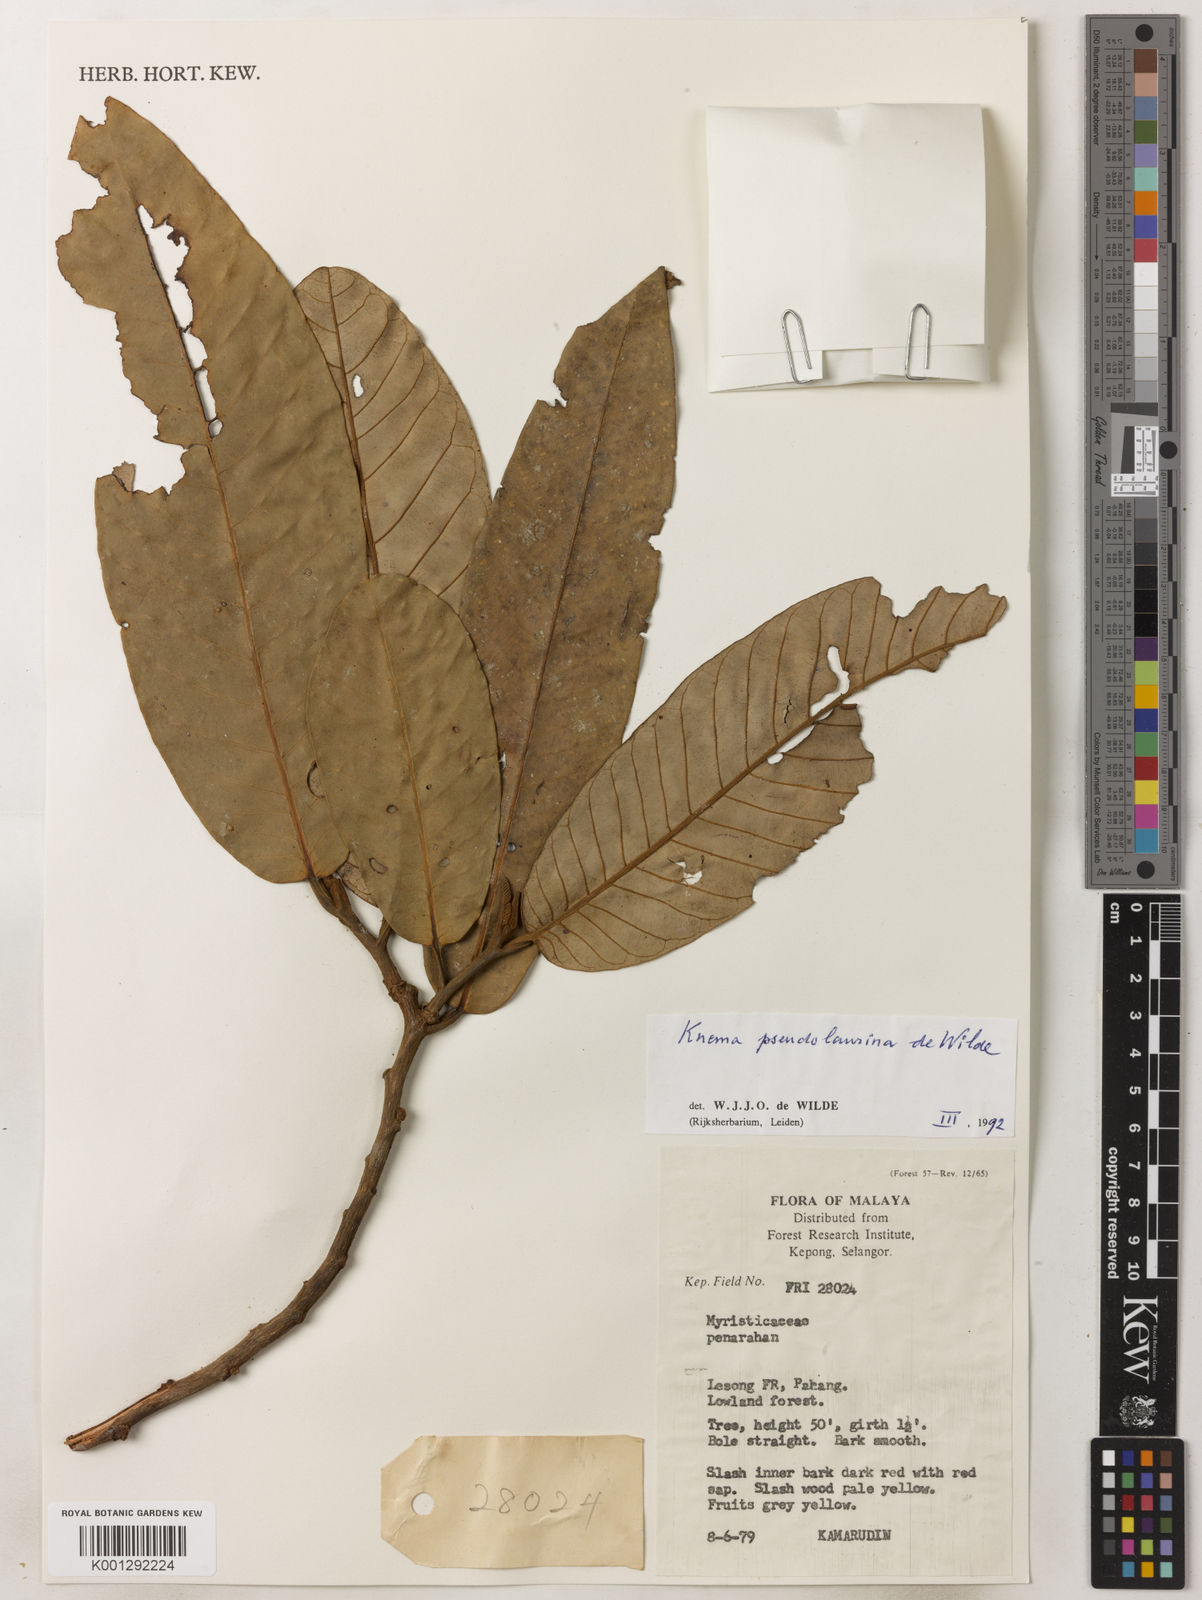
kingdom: Plantae
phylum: Tracheophyta
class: Magnoliopsida
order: Magnoliales
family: Myristicaceae
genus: Knema
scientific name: Knema pseudolaurina
